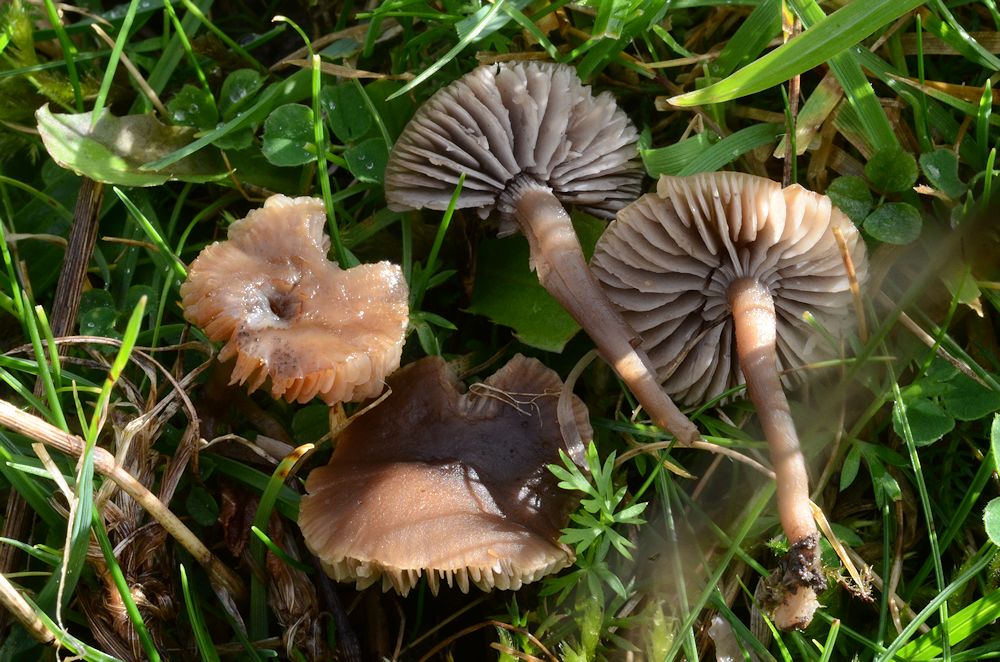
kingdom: Fungi
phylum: Basidiomycota
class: Agaricomycetes
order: Agaricales
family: Tricholomataceae
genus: Dermoloma
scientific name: Dermoloma pseudocuneifolium
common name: mark-nonnehat
